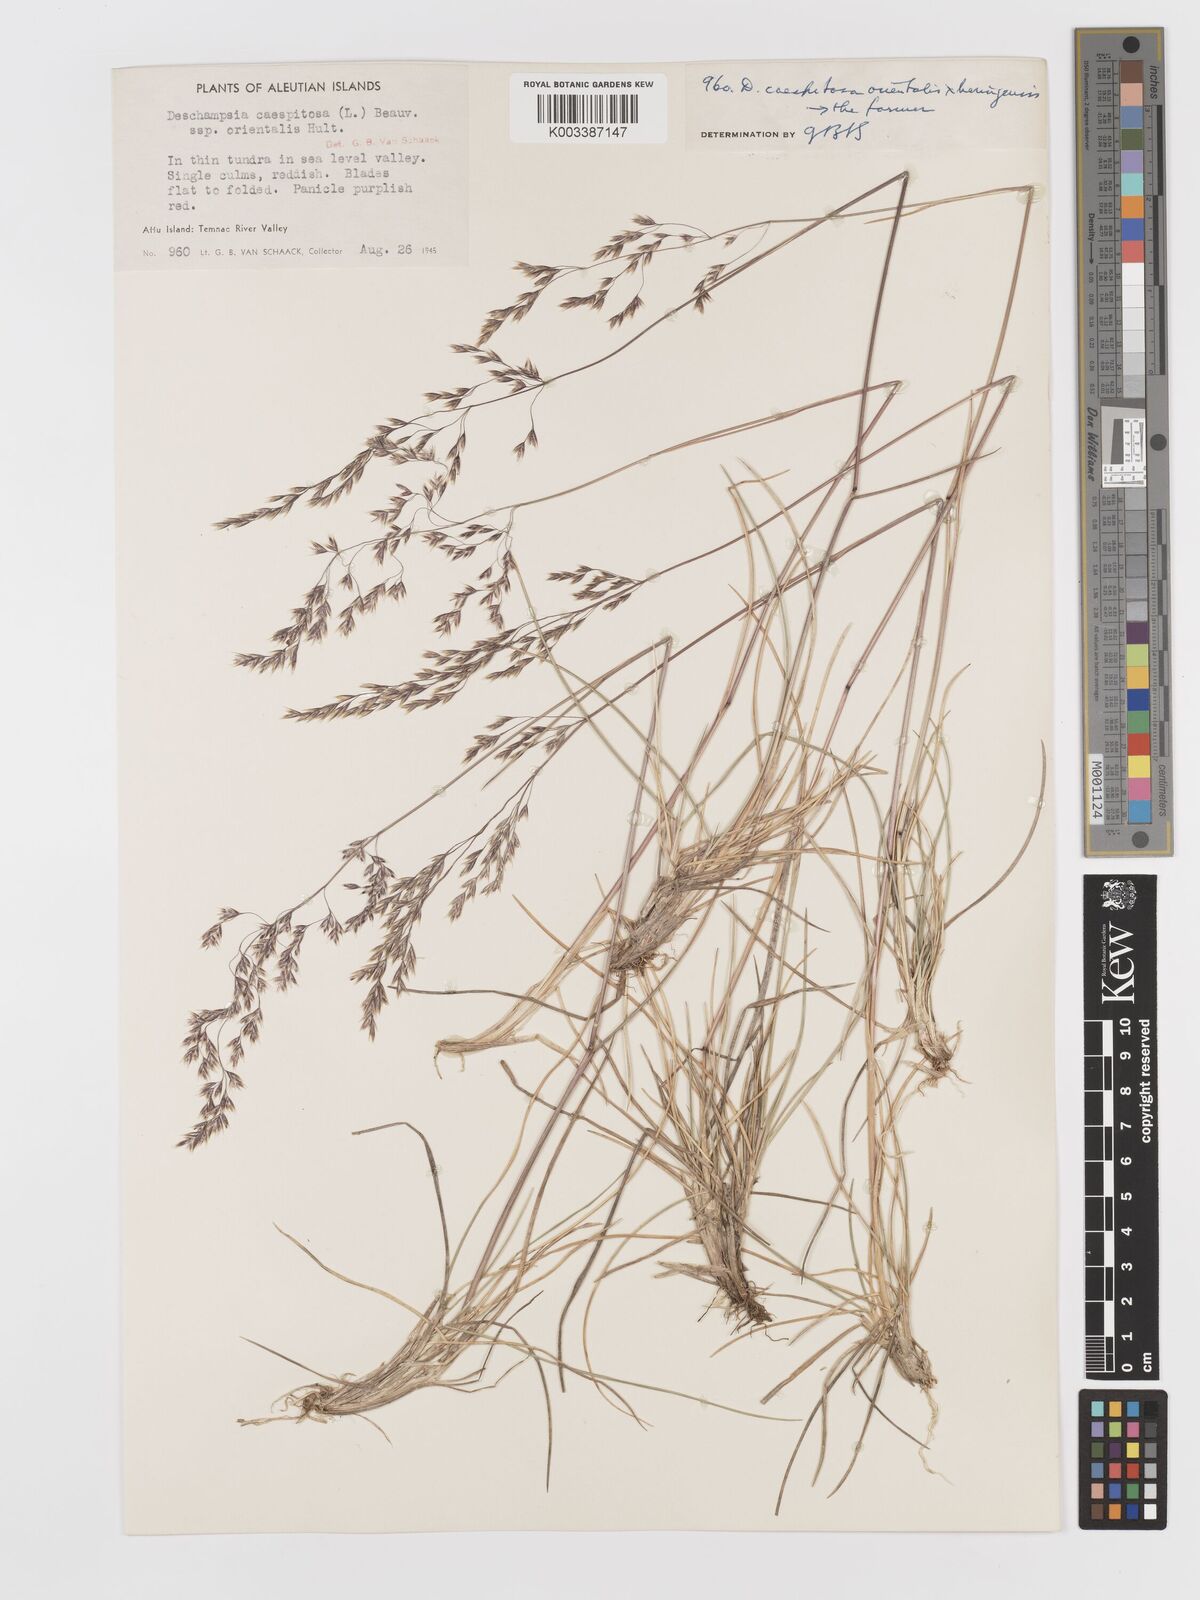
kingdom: Plantae
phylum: Tracheophyta
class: Liliopsida
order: Poales
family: Poaceae
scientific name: Poaceae
